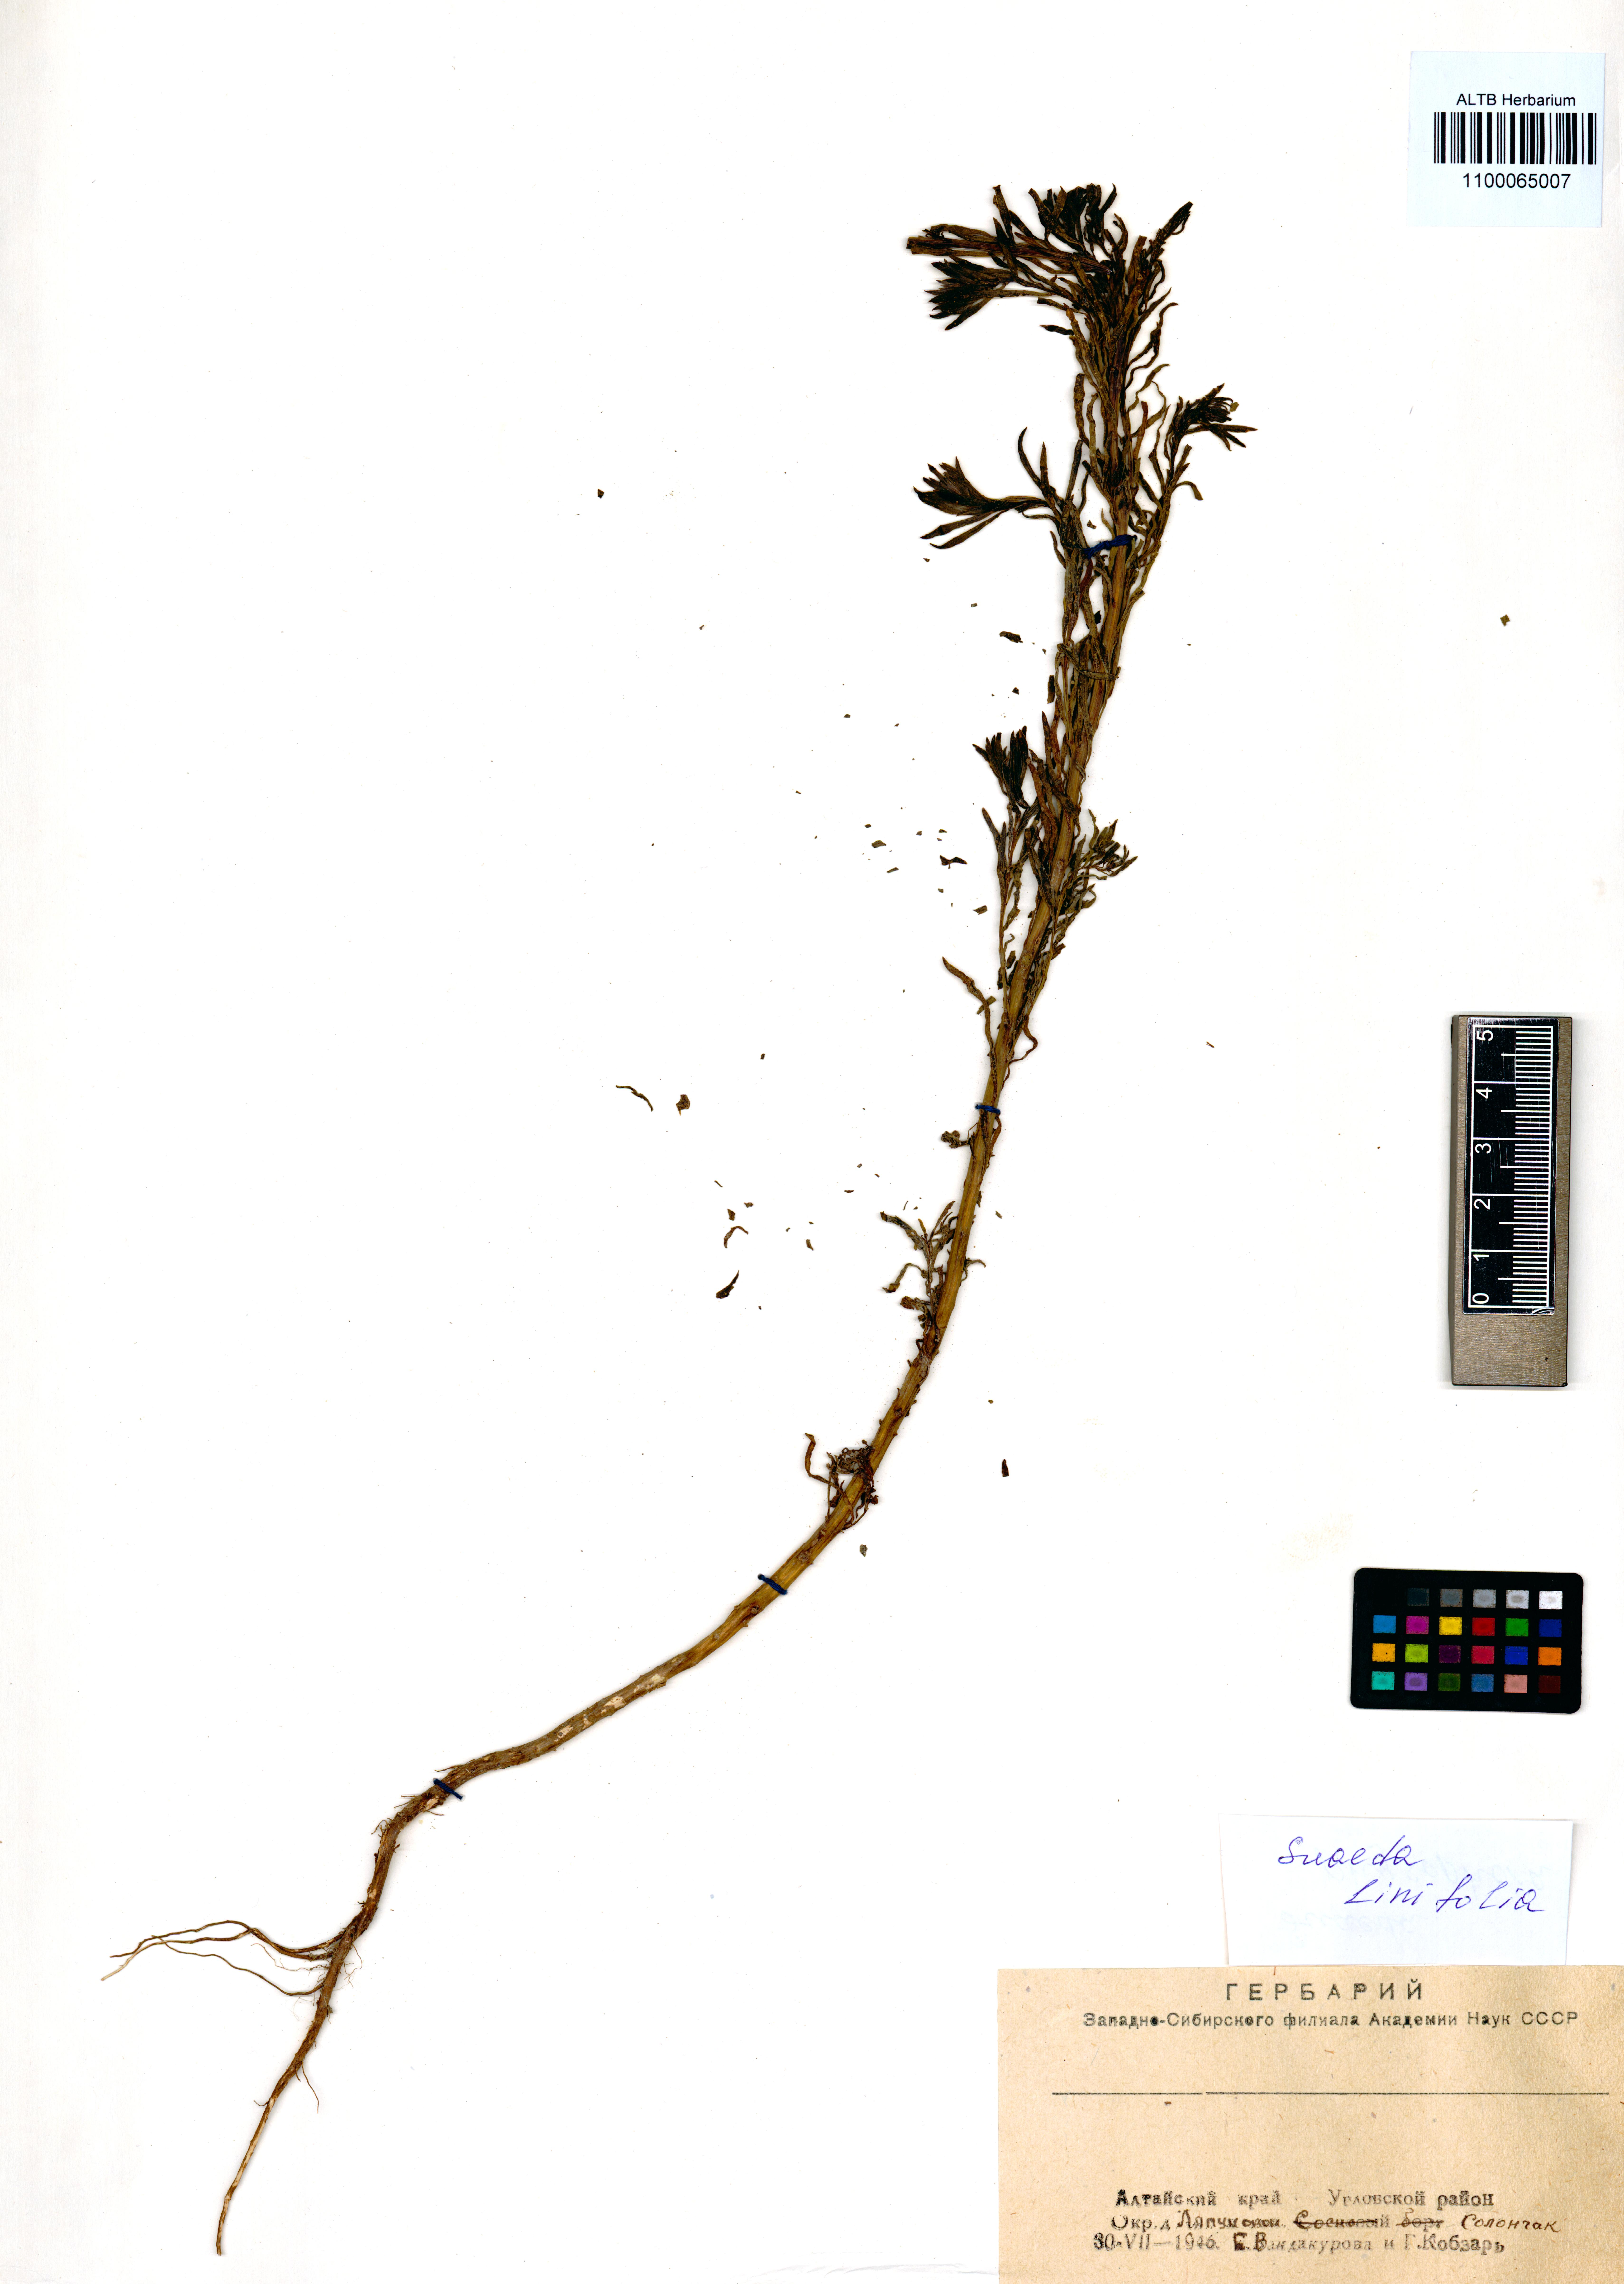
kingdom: Plantae
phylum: Tracheophyta
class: Magnoliopsida
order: Caryophyllales
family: Amaranthaceae
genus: Suaeda
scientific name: Suaeda linifolia
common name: Pin-leaf seepweed
